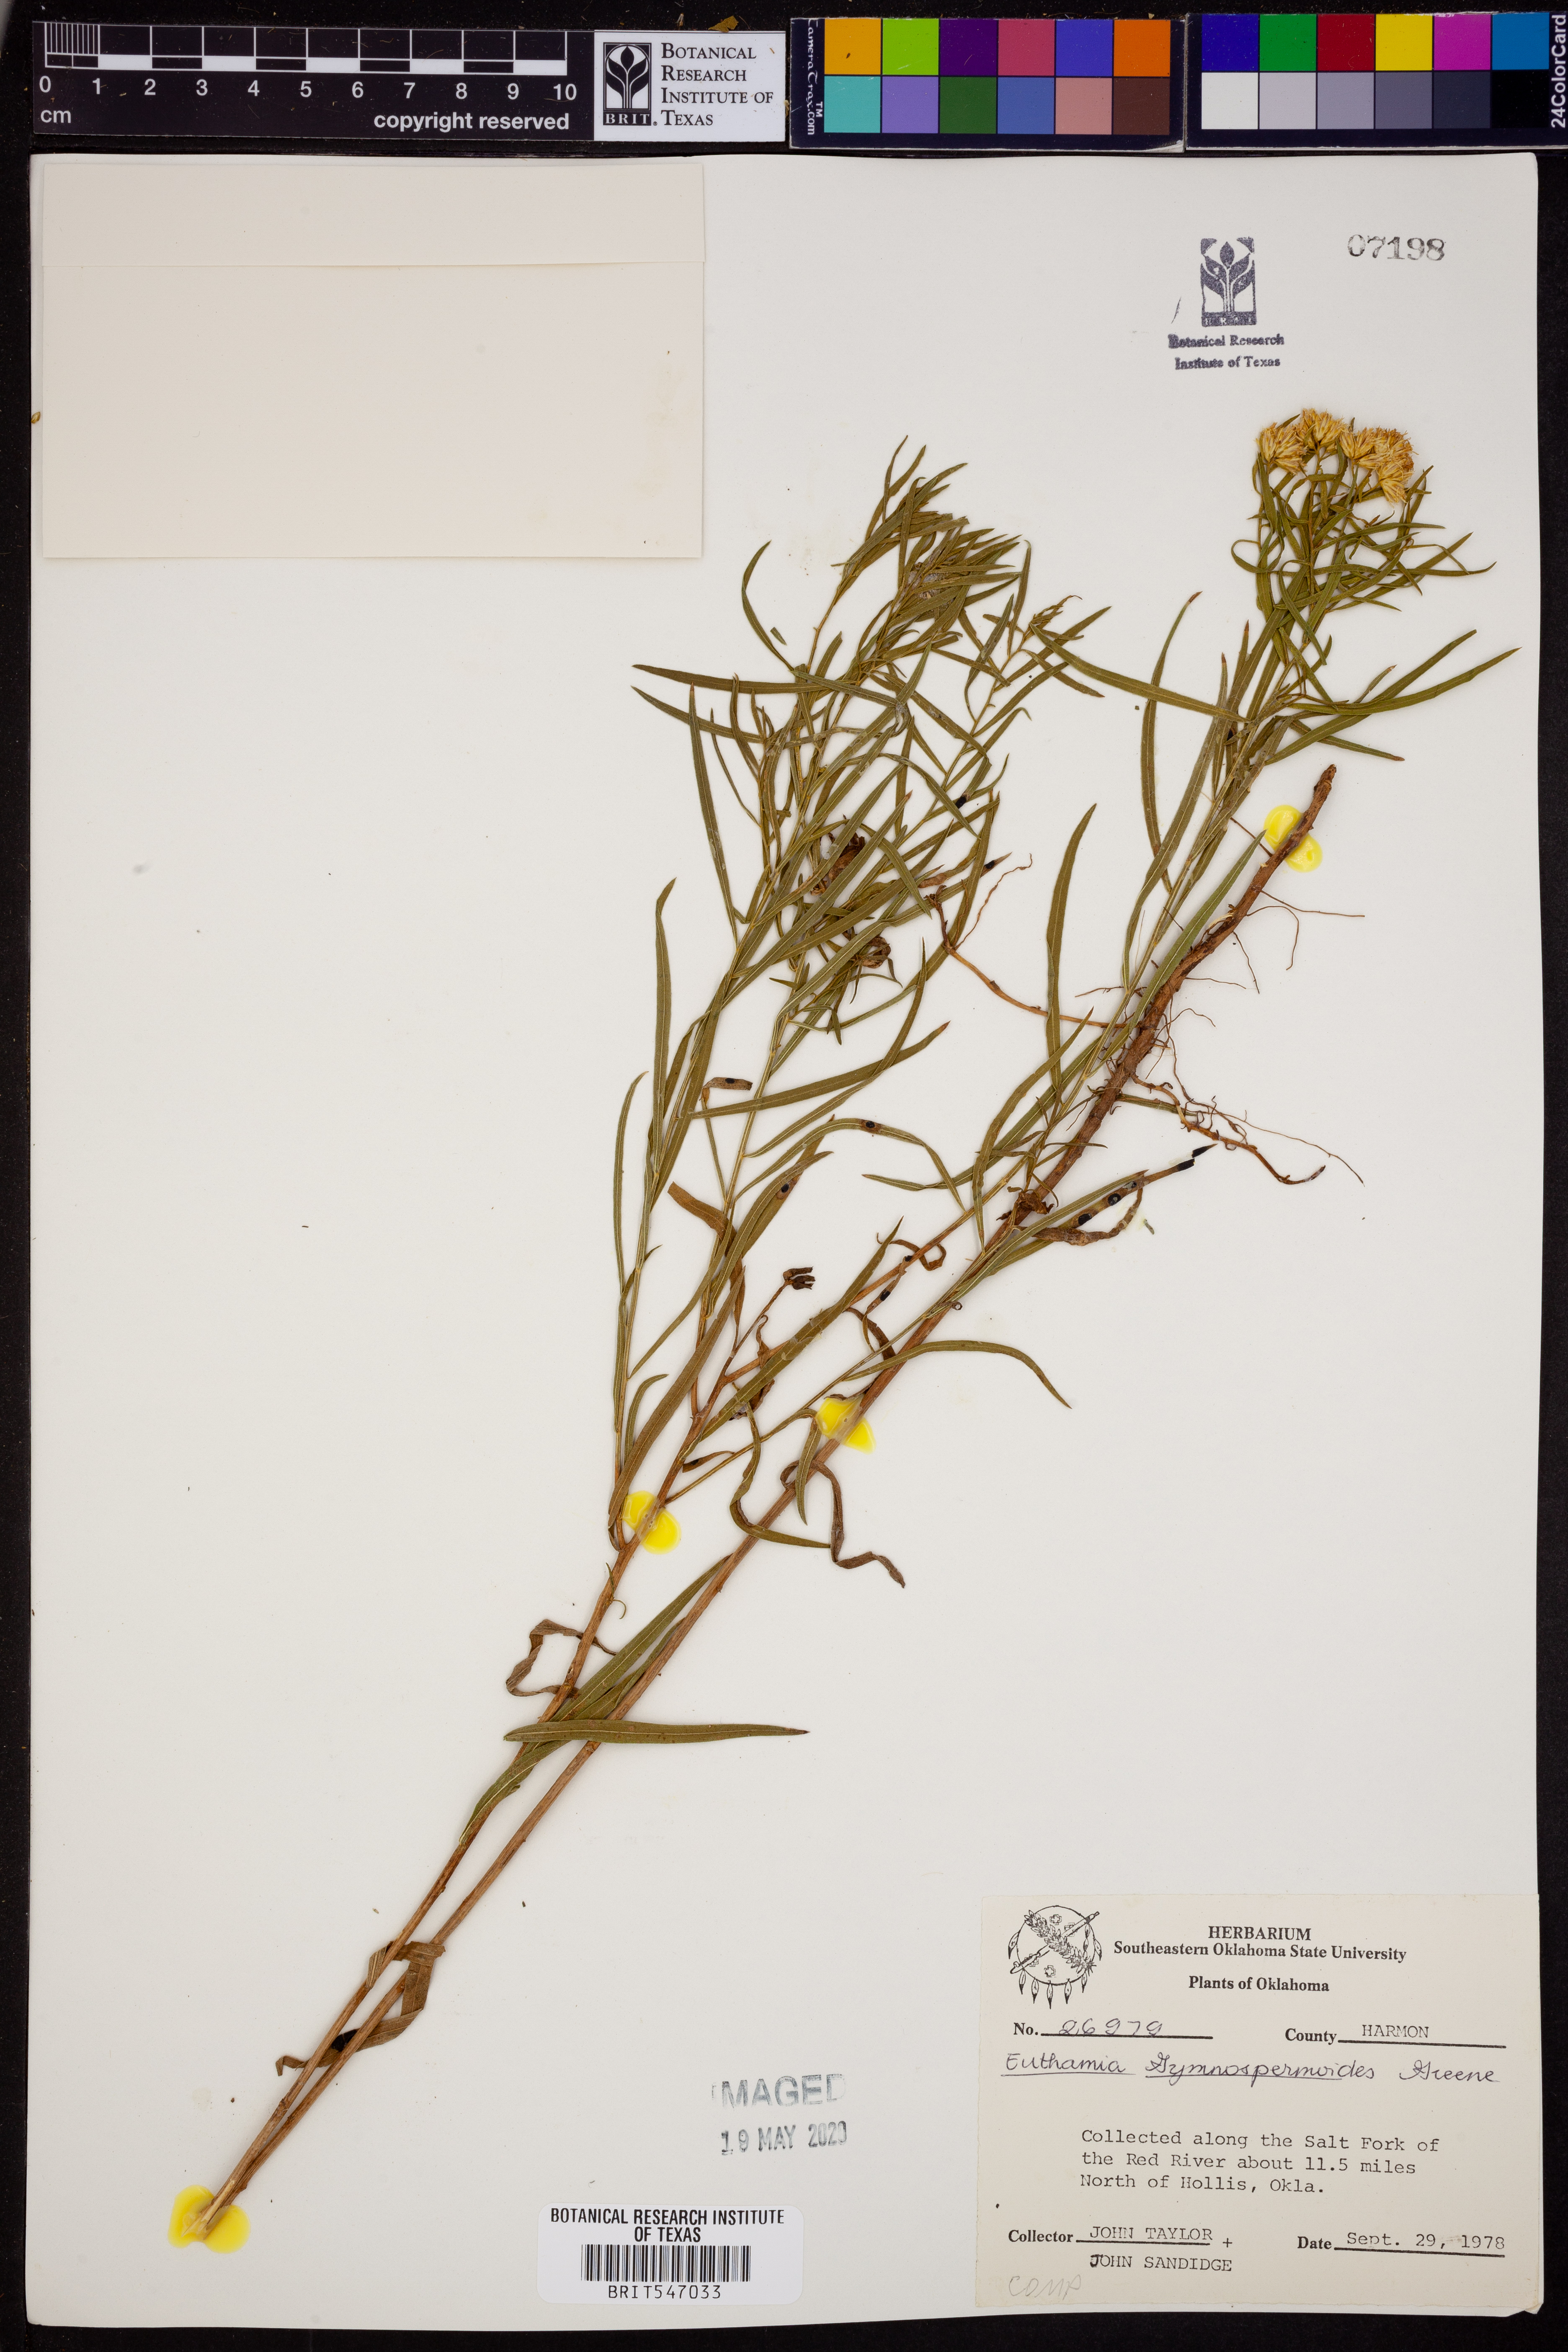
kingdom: Plantae
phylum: Tracheophyta
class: Magnoliopsida
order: Asterales
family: Asteraceae
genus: Euthamia
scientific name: Euthamia gymnospermoides
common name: Great plains goldentop
